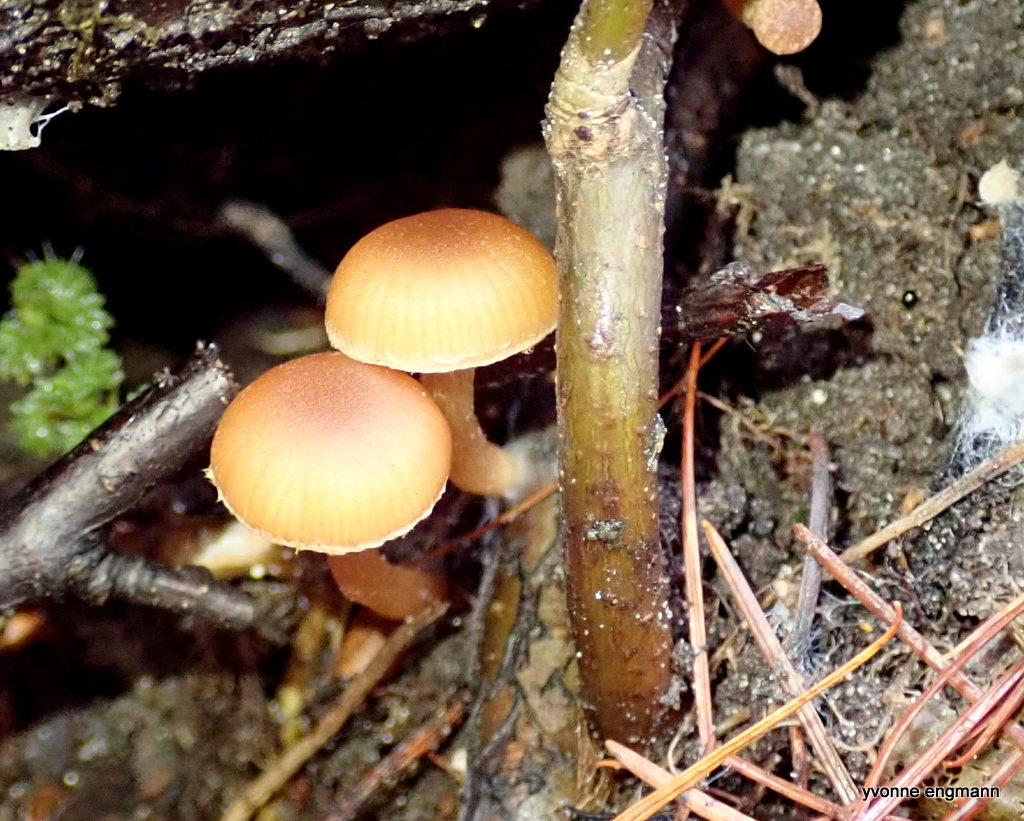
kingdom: Fungi
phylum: Basidiomycota
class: Agaricomycetes
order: Agaricales
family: Tubariaceae
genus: Tubaria
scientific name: Tubaria furfuracea
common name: kliddet fnughat
